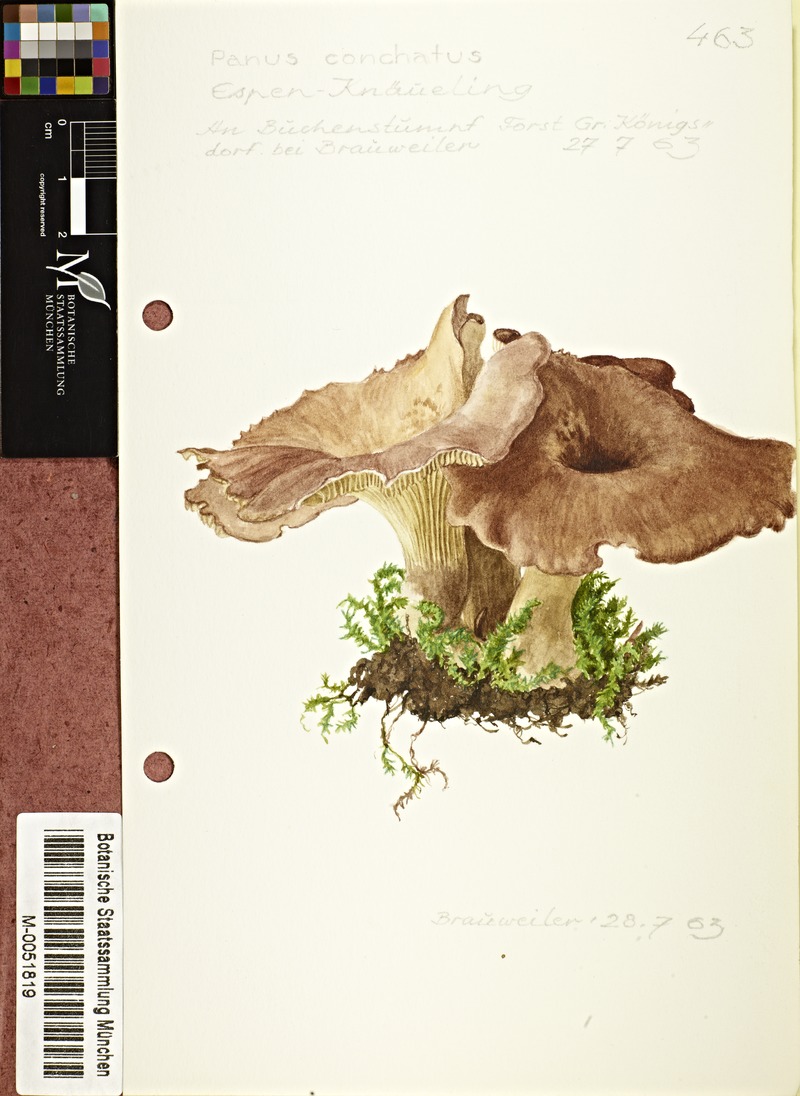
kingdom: Fungi
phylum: Basidiomycota
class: Agaricomycetes
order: Polyporales
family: Polyporaceae
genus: Lentinus
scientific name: Lentinus
